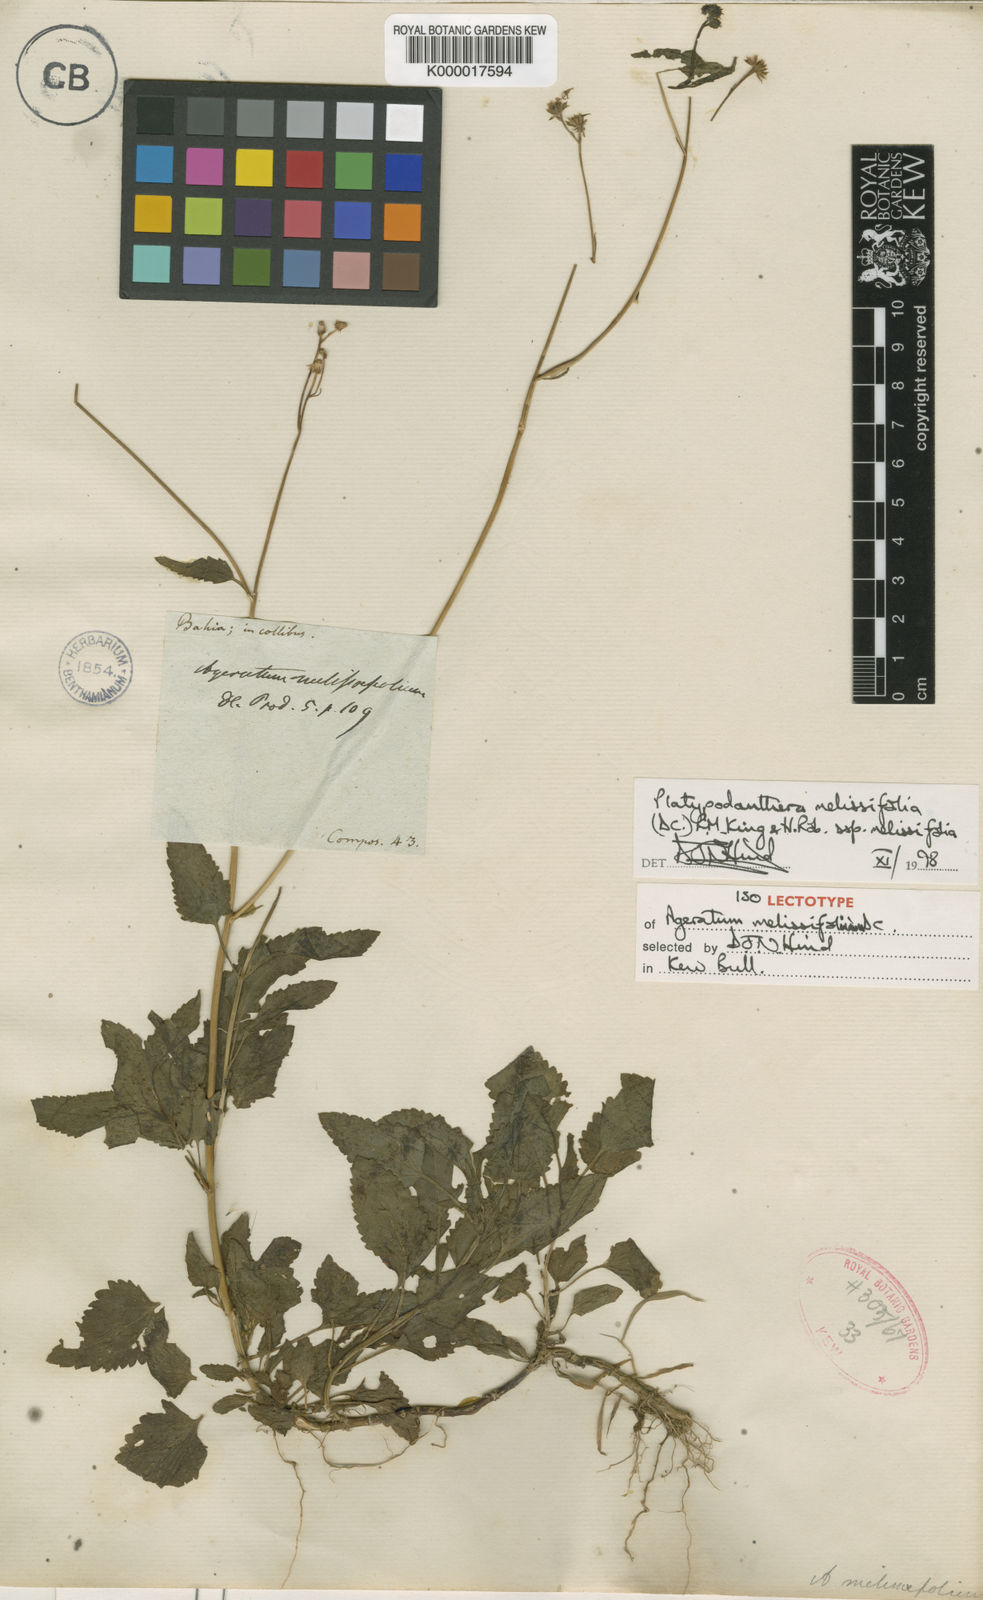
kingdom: Plantae
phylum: Tracheophyta
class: Magnoliopsida
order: Asterales
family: Asteraceae
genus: Platypodanthera
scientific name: Platypodanthera melissifolia
